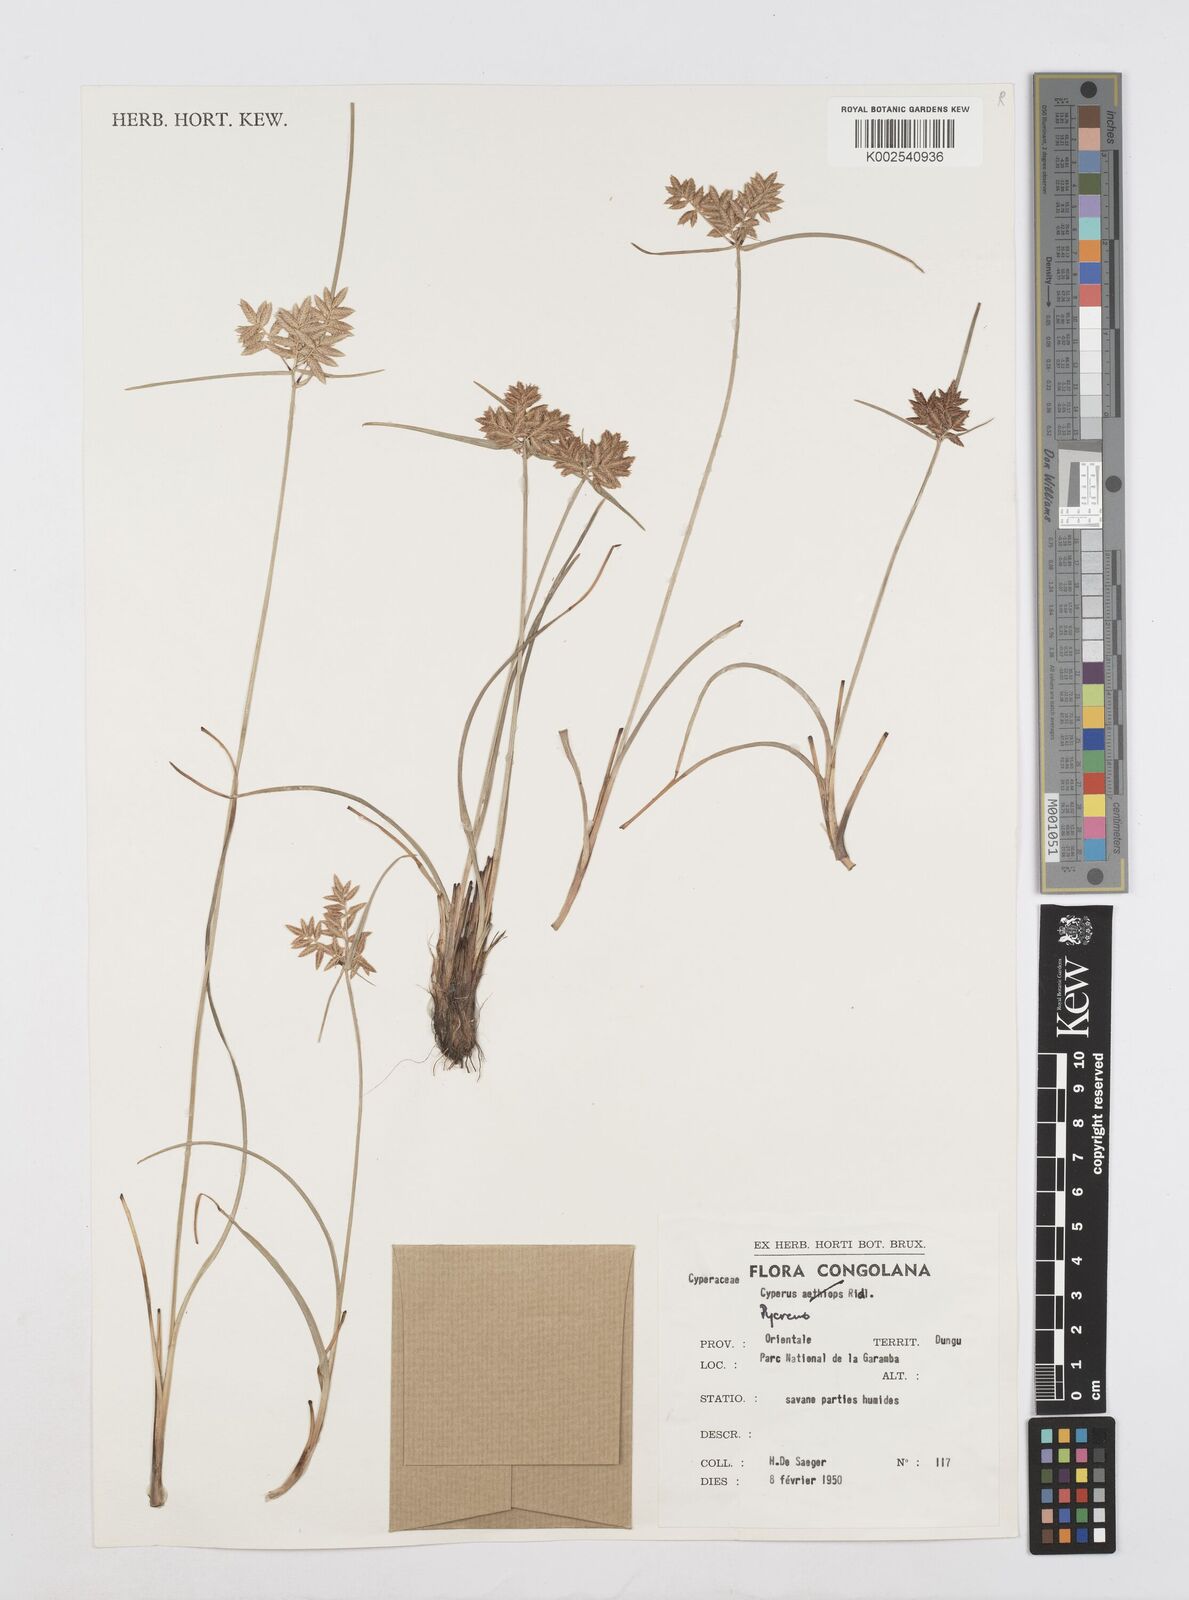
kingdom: Plantae
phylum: Tracheophyta
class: Liliopsida
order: Poales
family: Cyperaceae
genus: Cyperus
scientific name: Cyperus flavescens
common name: Yellow galingale
